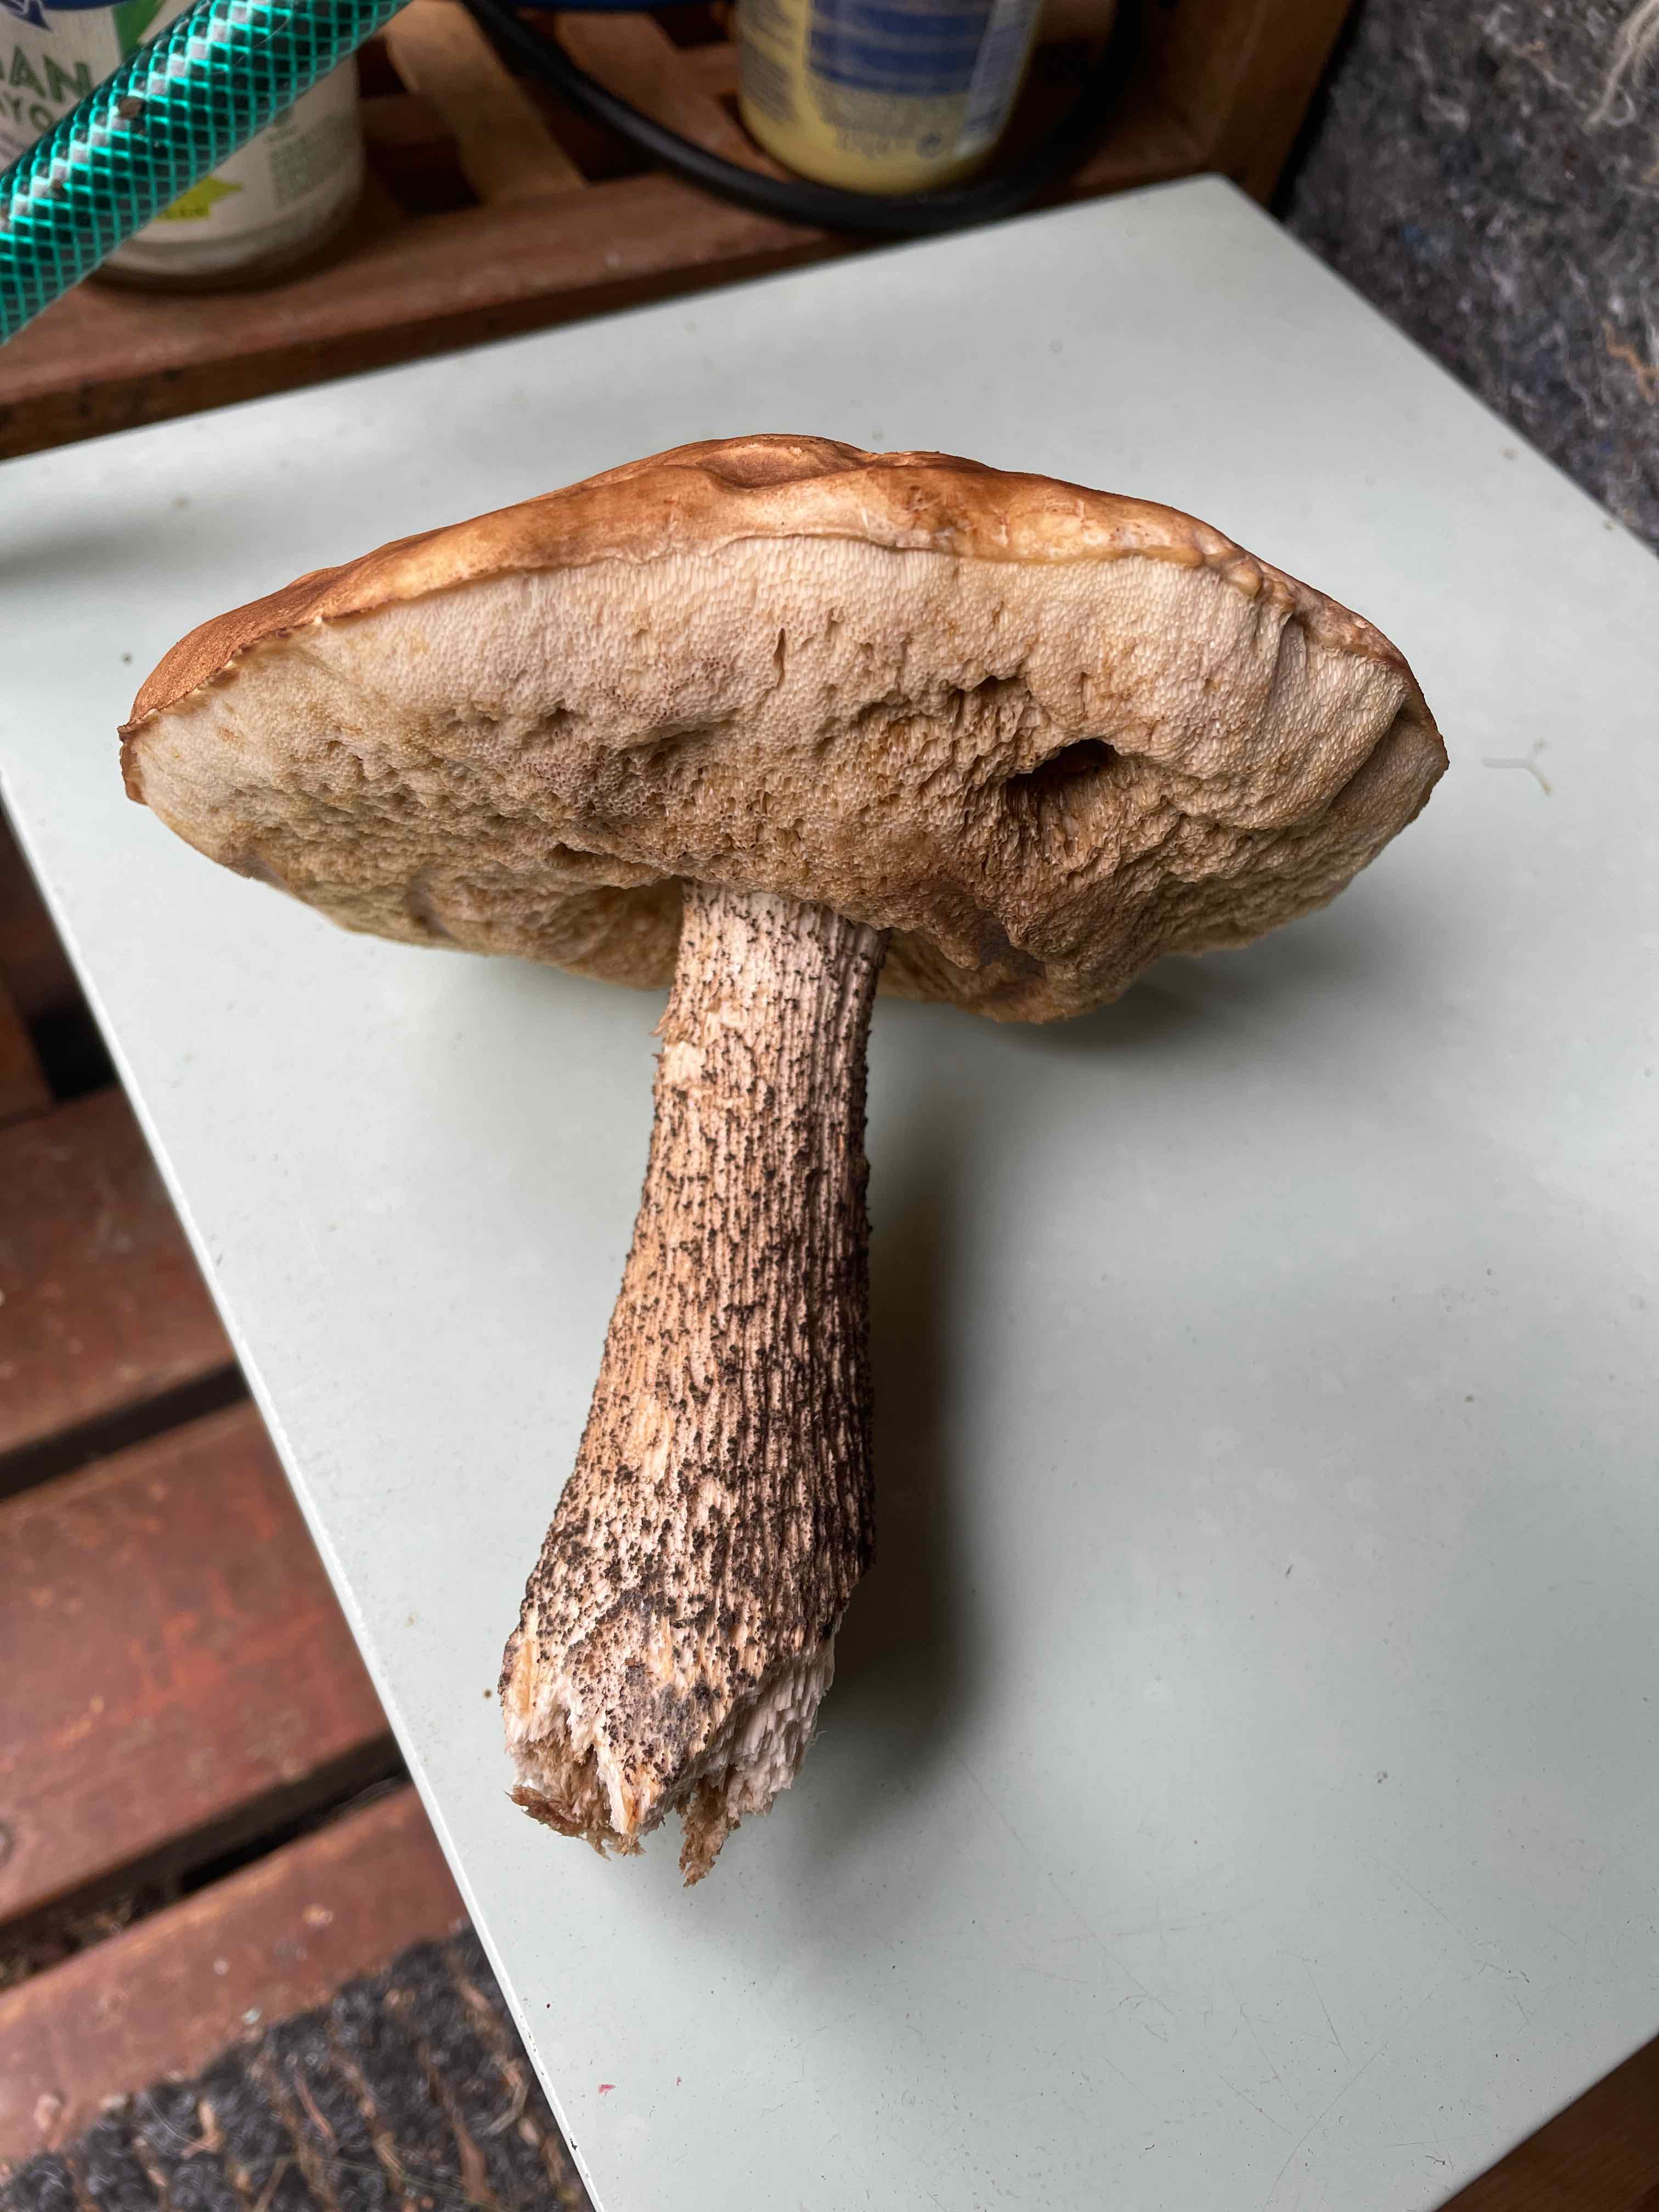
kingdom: Fungi
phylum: Basidiomycota
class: Agaricomycetes
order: Boletales
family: Boletaceae
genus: Leccinum
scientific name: Leccinum scabrum
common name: brun skælrørhat
